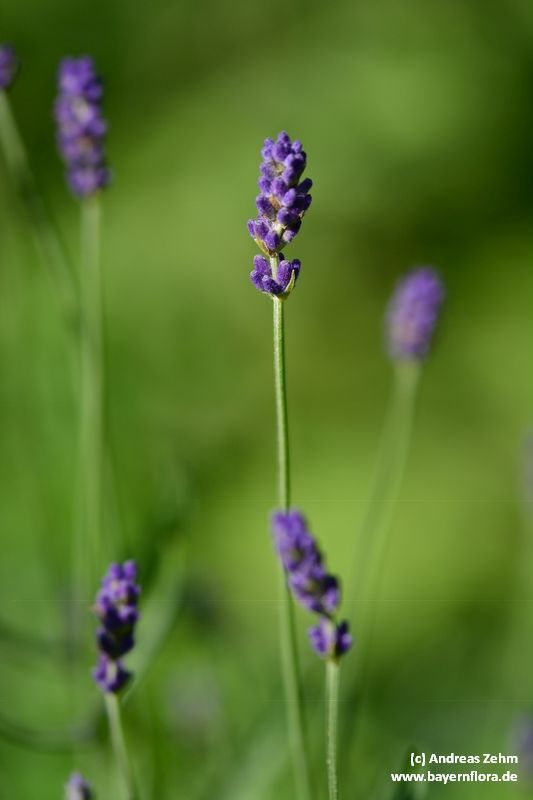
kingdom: Plantae
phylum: Tracheophyta
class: Magnoliopsida
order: Lamiales
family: Lamiaceae
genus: Lavandula
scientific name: Lavandula angustifolia
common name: Garden lavender
